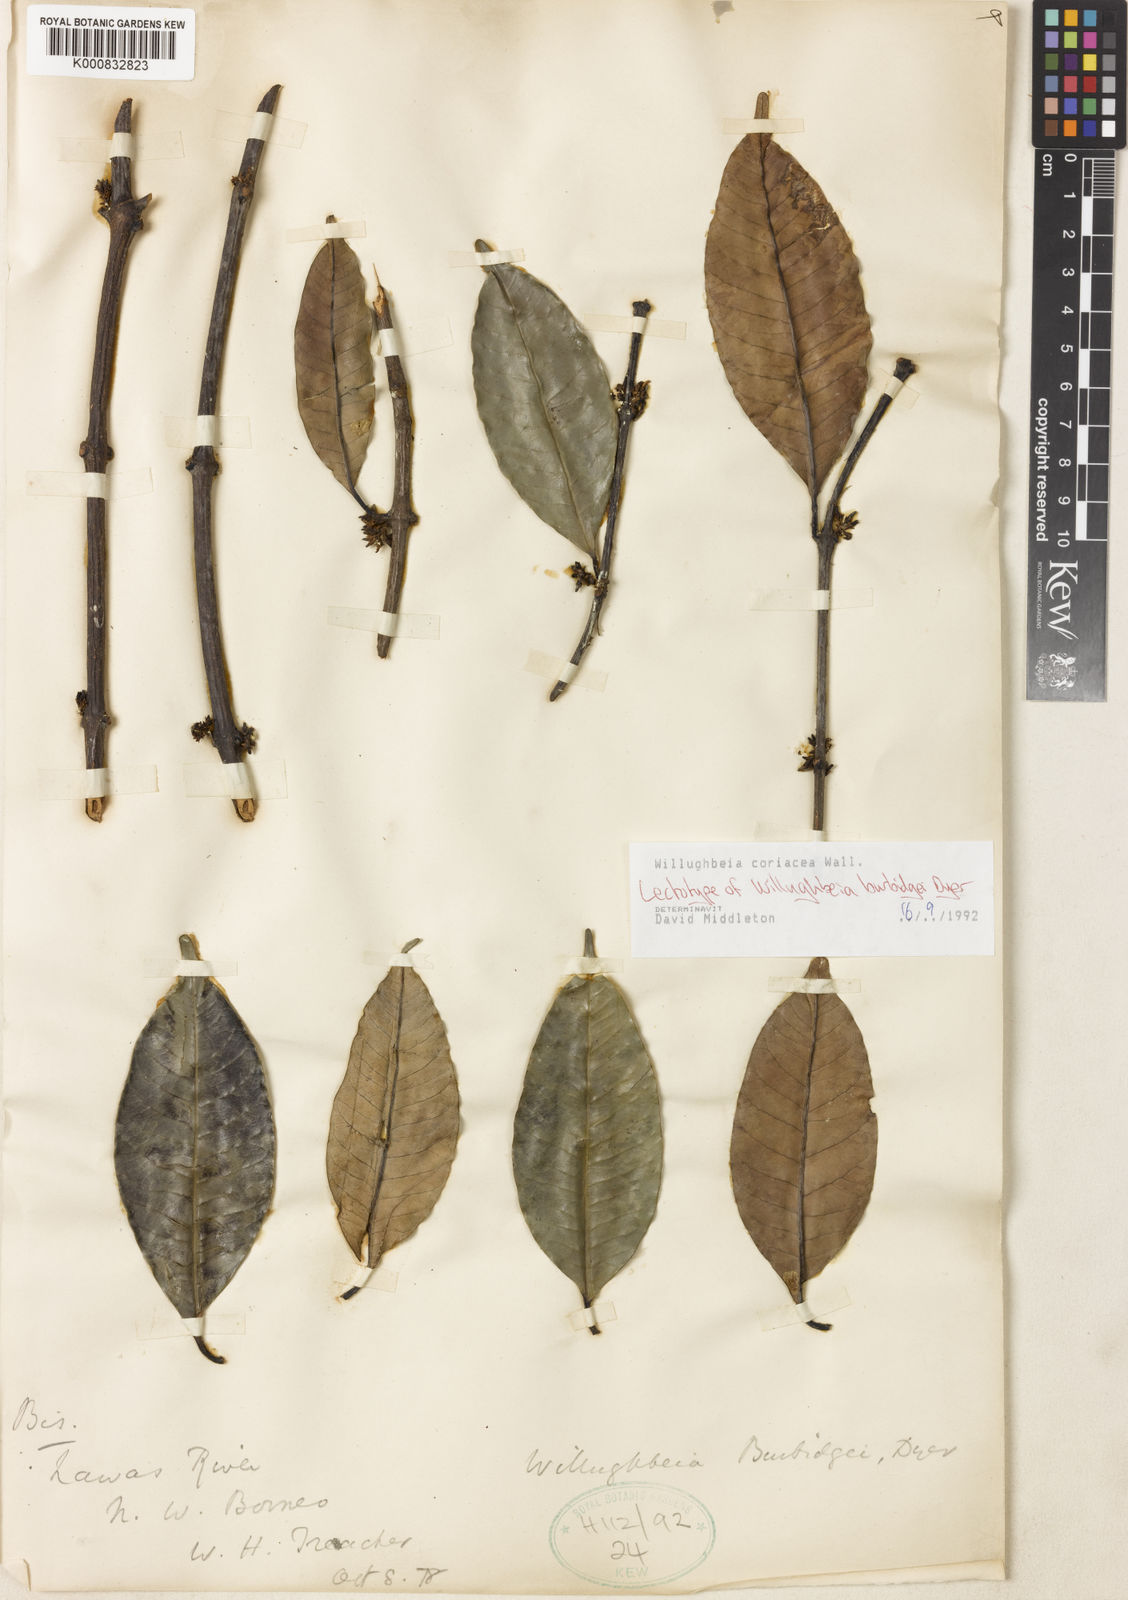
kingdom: Plantae
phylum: Tracheophyta
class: Magnoliopsida
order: Gentianales
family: Apocynaceae
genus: Willughbeia
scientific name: Willughbeia coriacea
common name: Borneo-rubber
